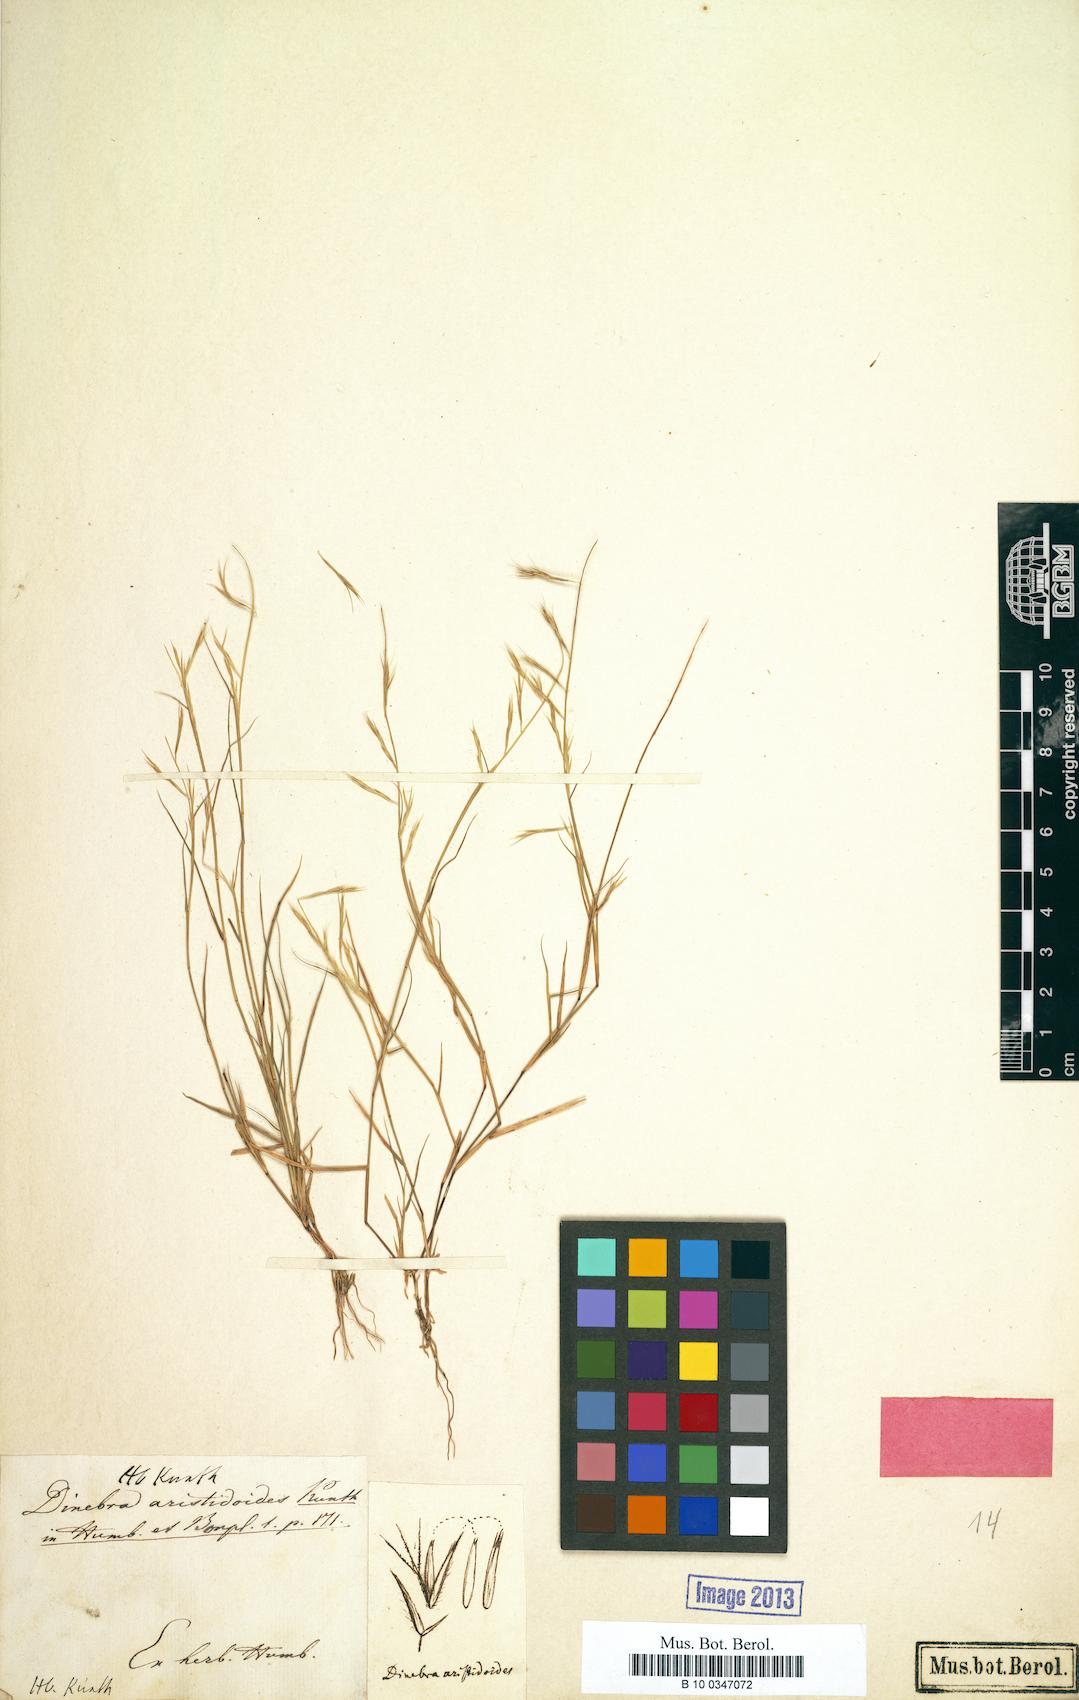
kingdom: Plantae
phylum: Tracheophyta
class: Liliopsida
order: Poales
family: Poaceae
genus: Bouteloua
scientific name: Bouteloua aristidoides
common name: Needle grama
